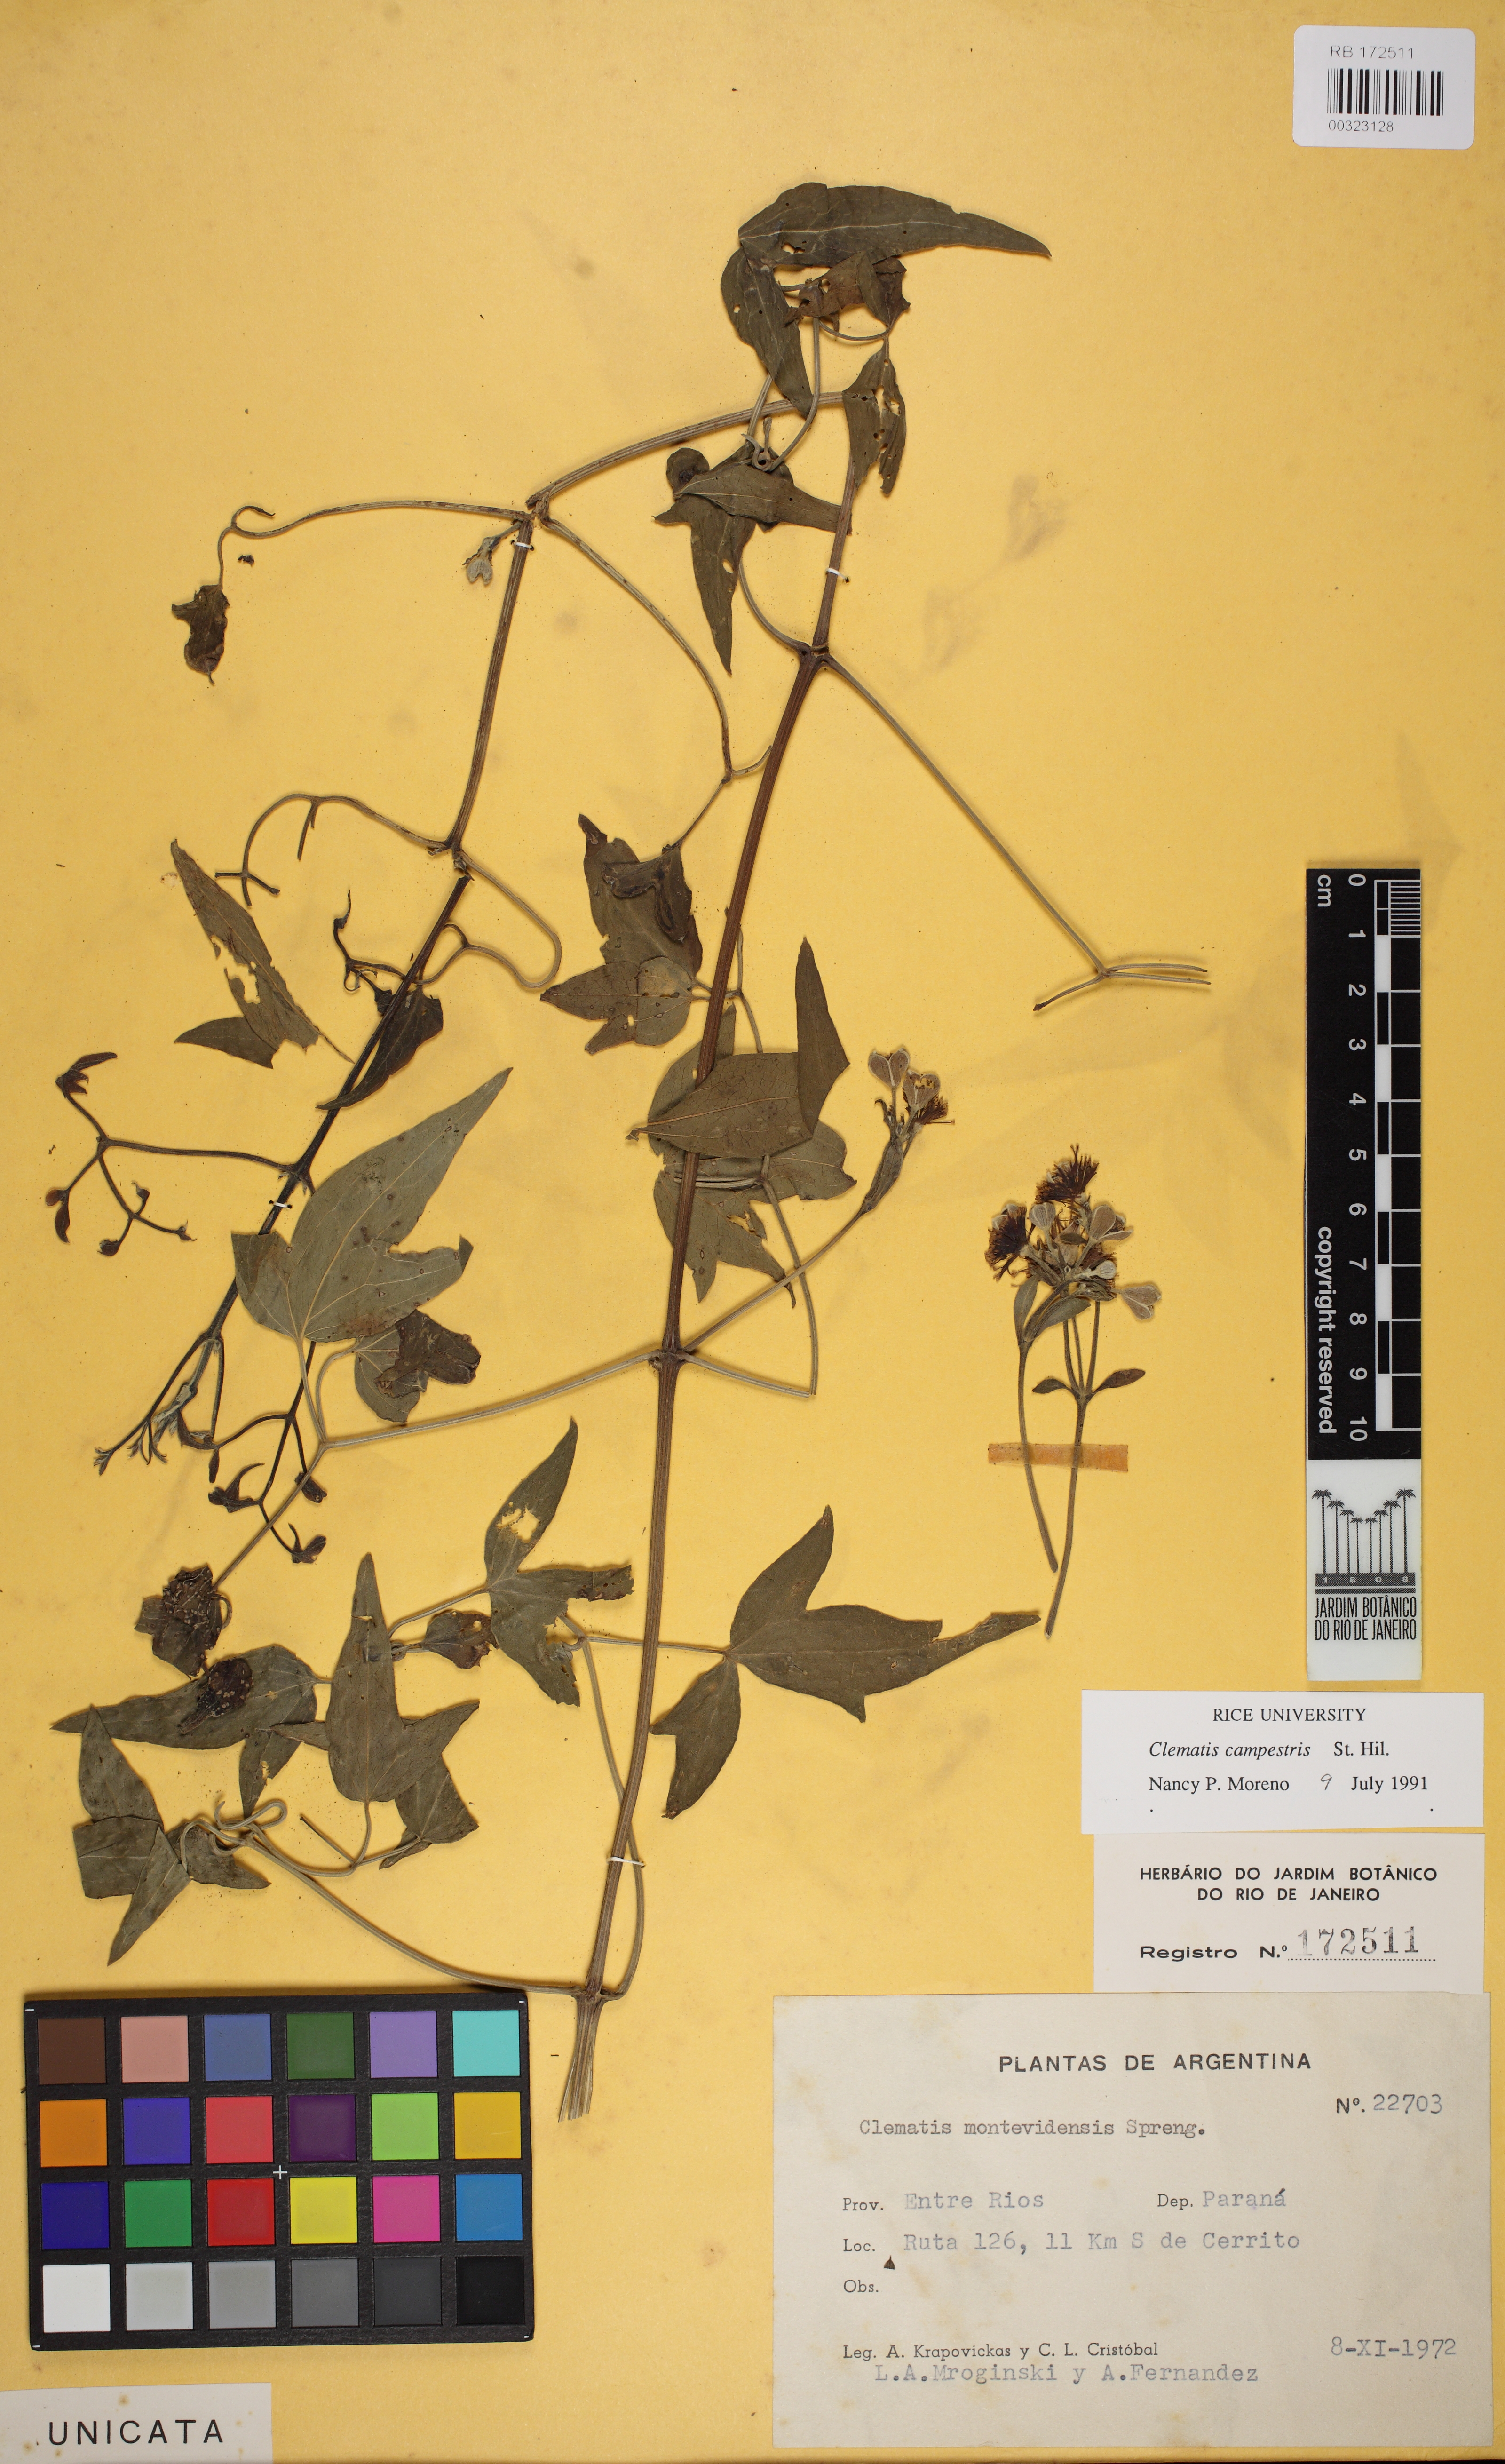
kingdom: Plantae
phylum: Tracheophyta
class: Magnoliopsida
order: Ranunculales
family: Ranunculaceae
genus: Clematis
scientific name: Clematis campestris
